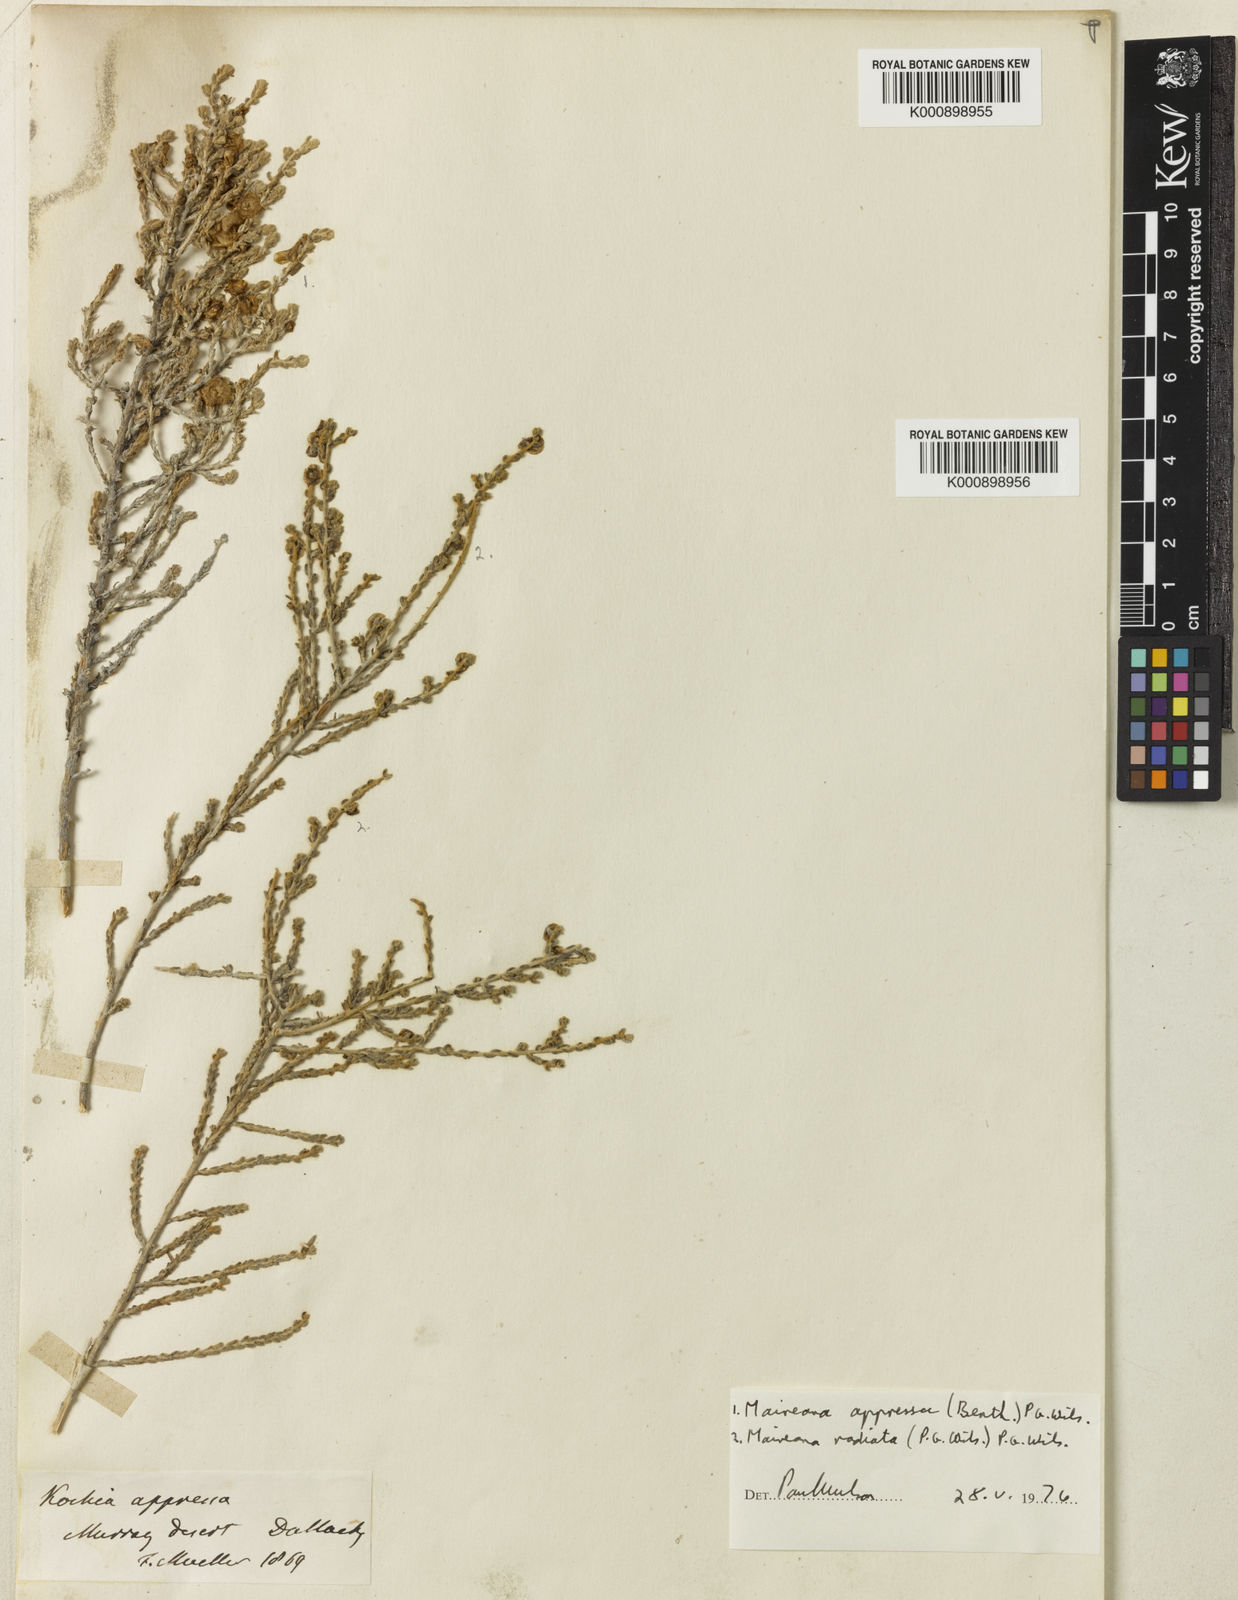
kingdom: Plantae
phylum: Tracheophyta
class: Magnoliopsida
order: Caryophyllales
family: Amaranthaceae
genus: Maireana
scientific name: Maireana appressa
